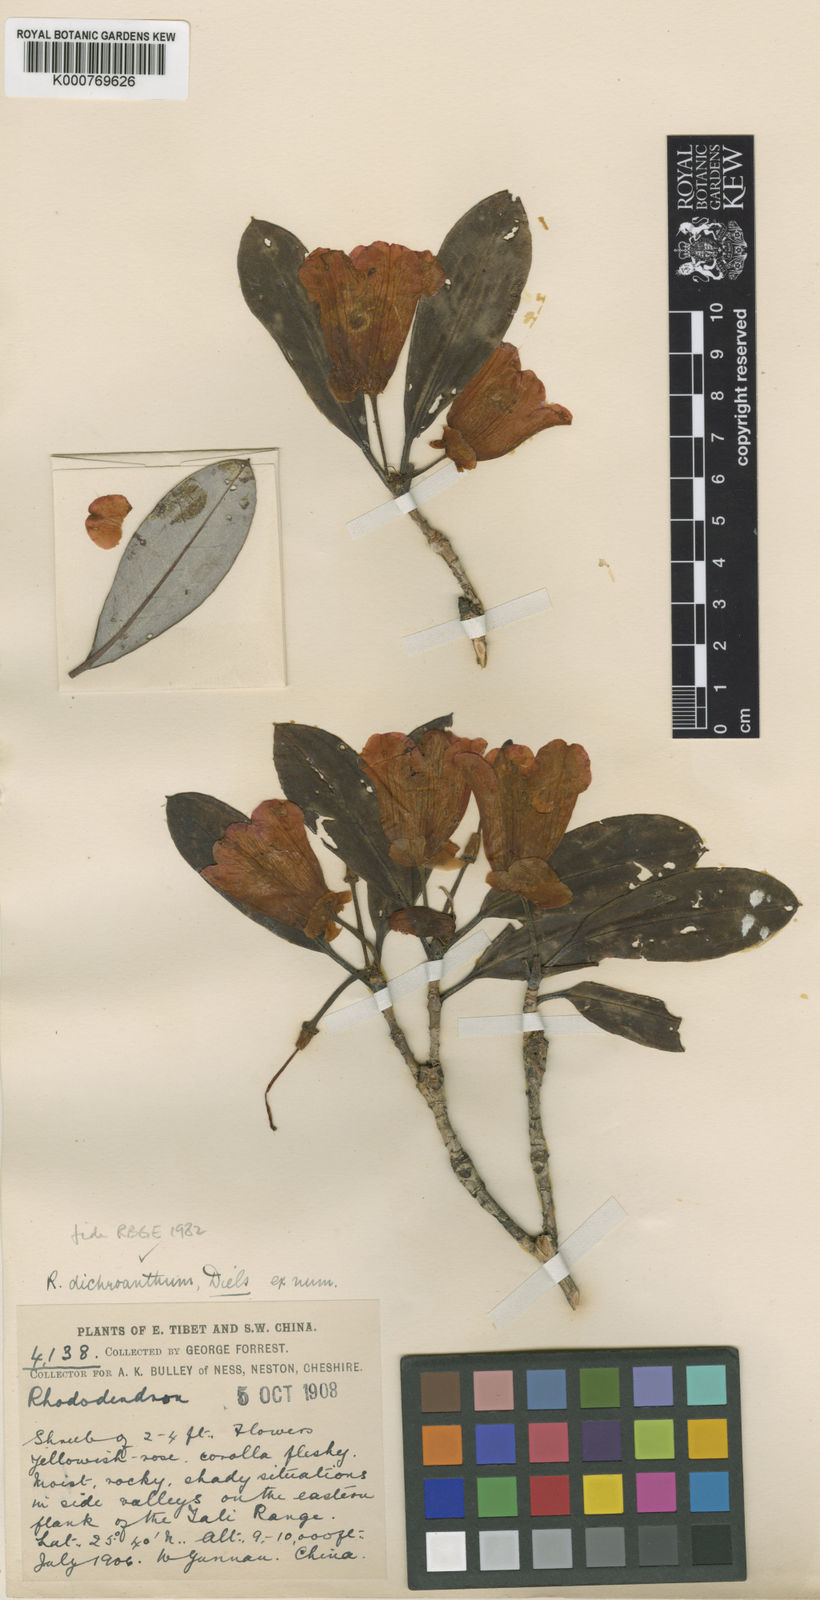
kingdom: Plantae
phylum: Tracheophyta
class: Magnoliopsida
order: Ericales
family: Ericaceae
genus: Rhododendron
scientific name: Rhododendron dichroanthum
